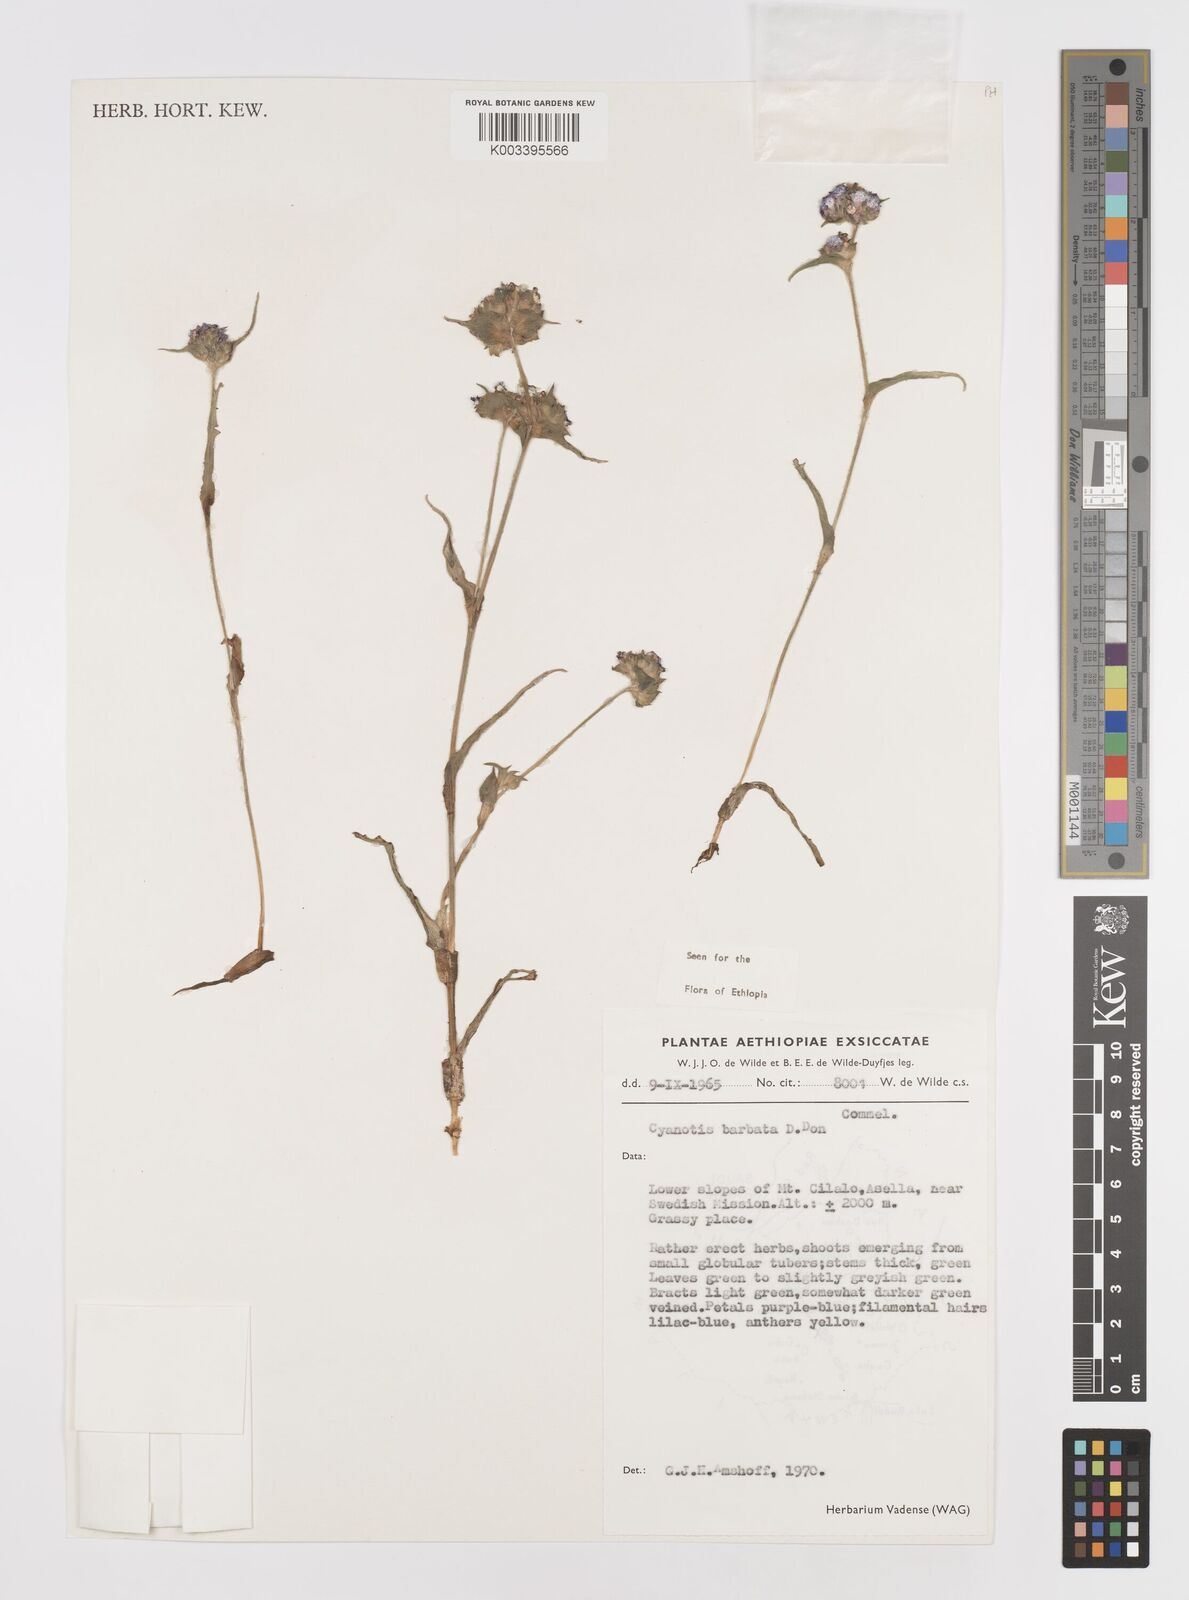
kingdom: Plantae
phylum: Tracheophyta
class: Liliopsida
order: Commelinales
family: Commelinaceae
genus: Cyanotis
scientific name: Cyanotis vaga
